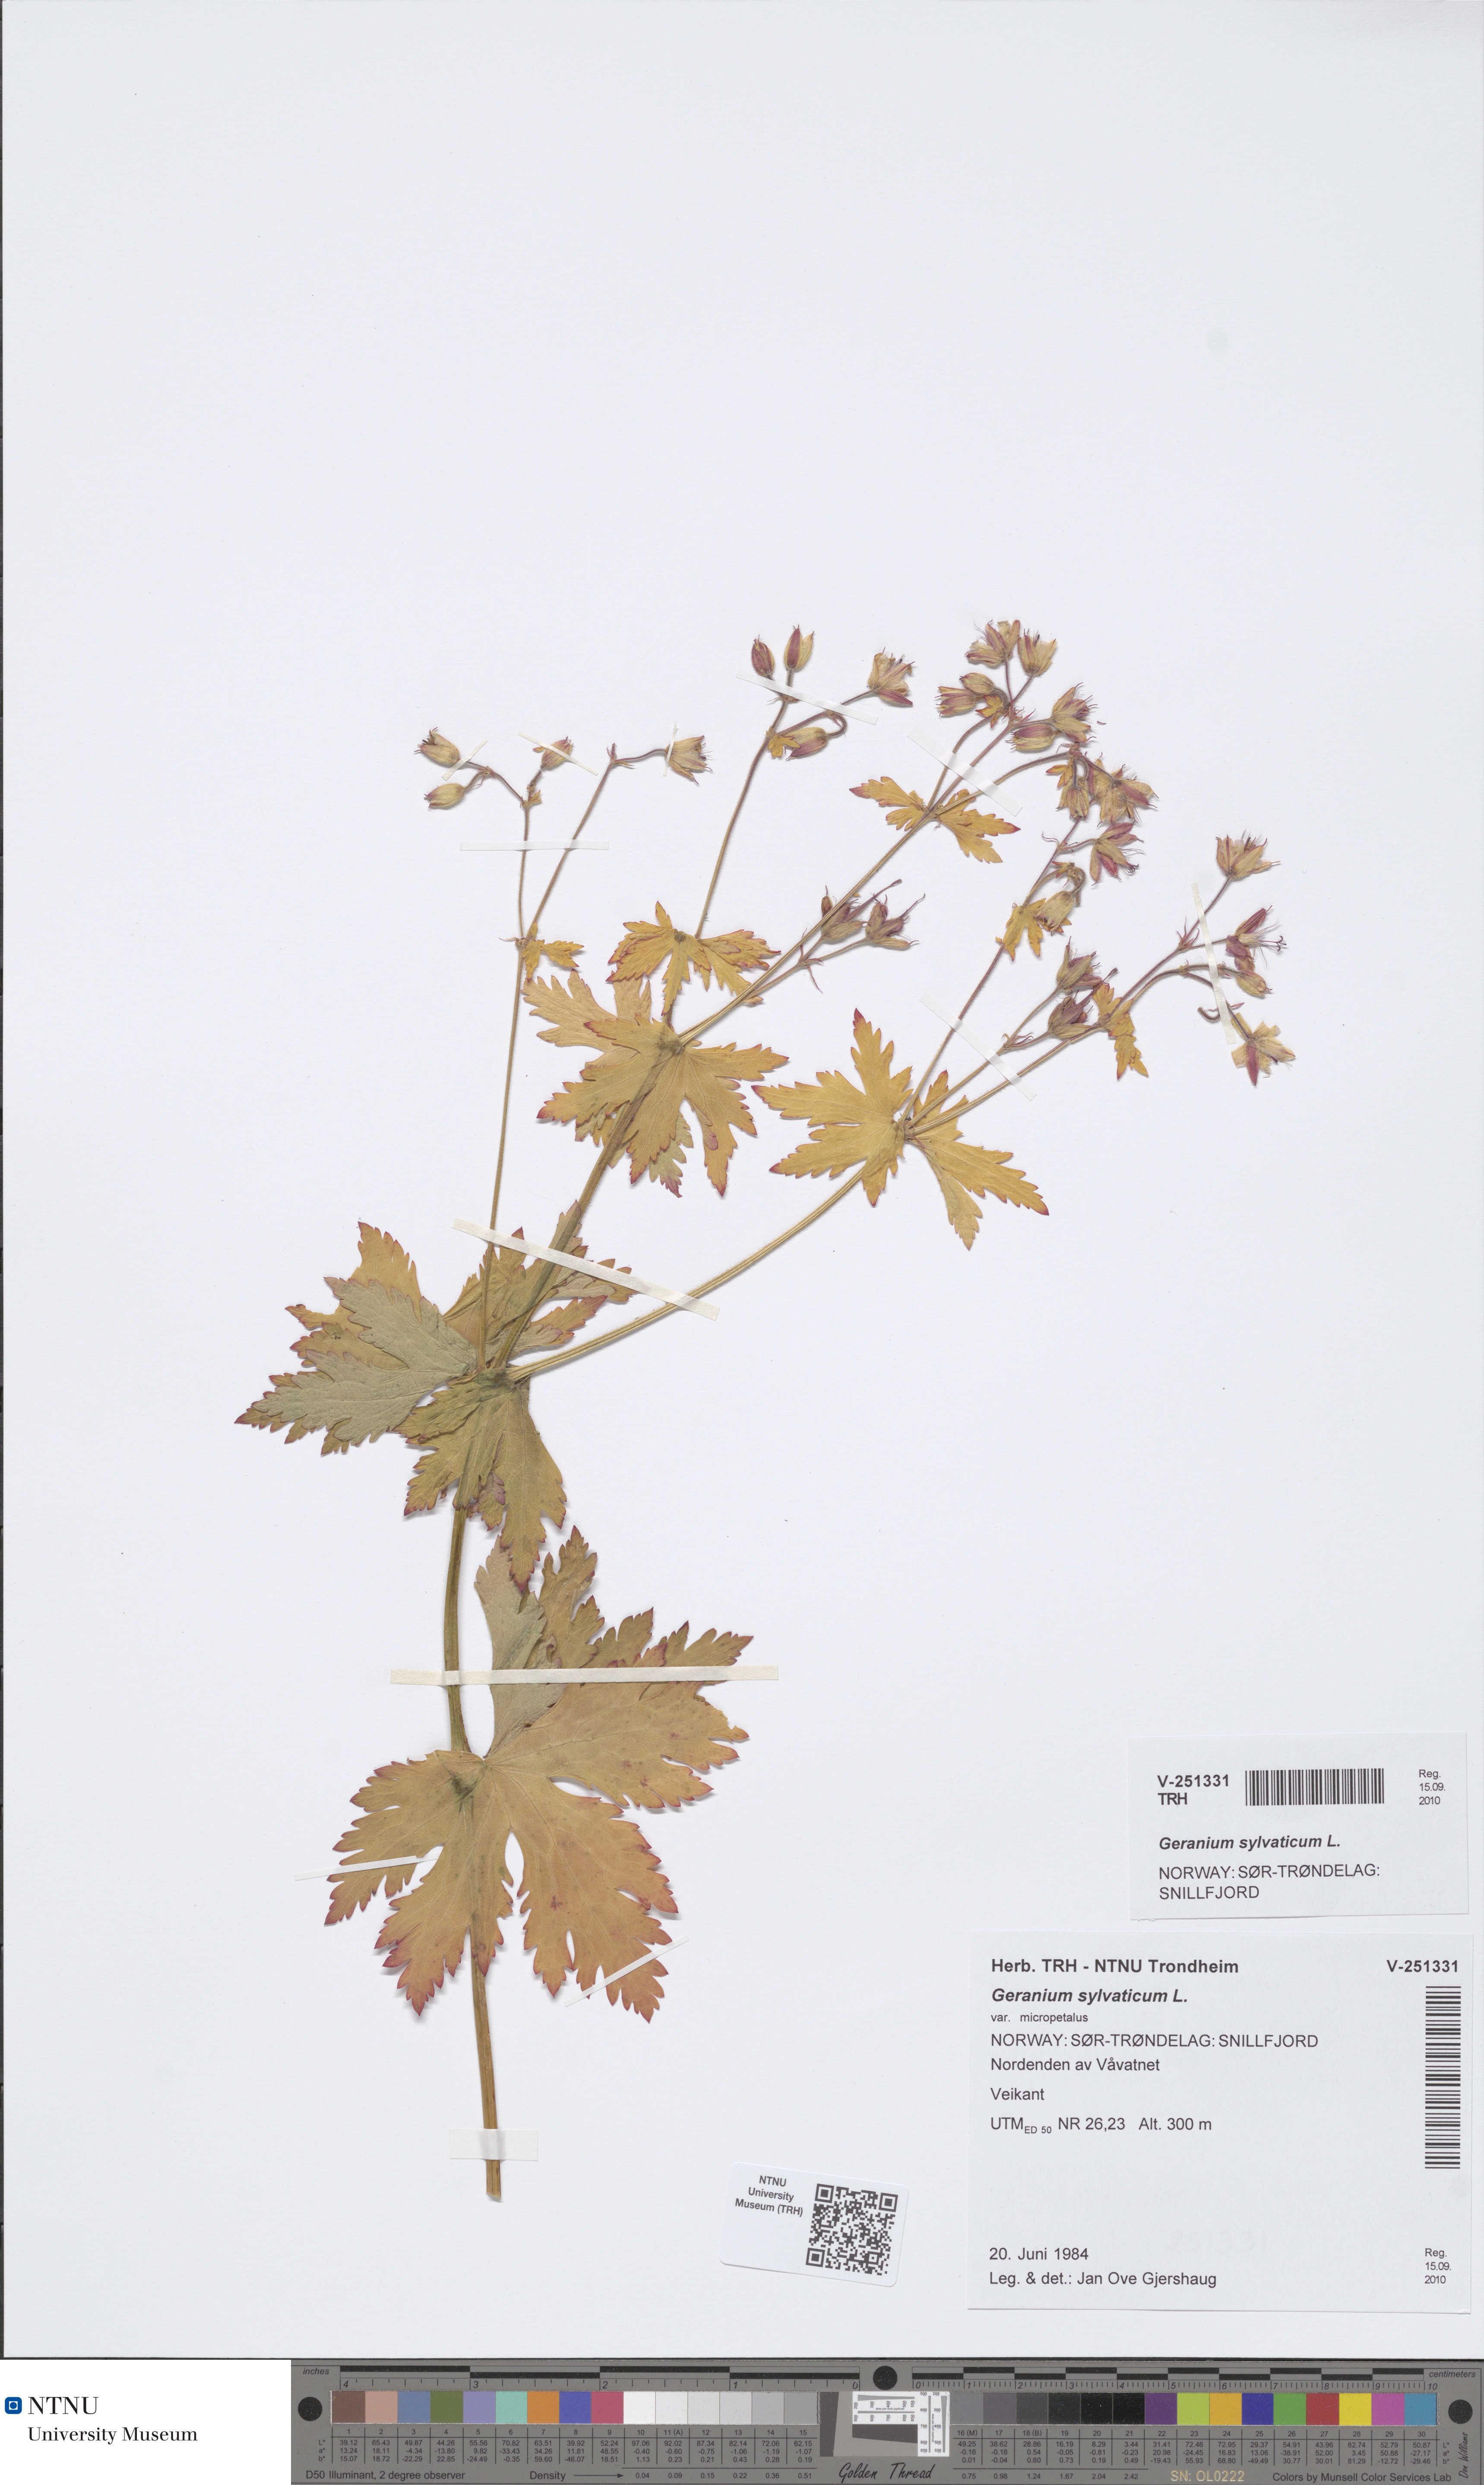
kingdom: Plantae
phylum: Tracheophyta
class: Magnoliopsida
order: Geraniales
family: Geraniaceae
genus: Geranium
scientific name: Geranium sylvaticum
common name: Wood crane's-bill
